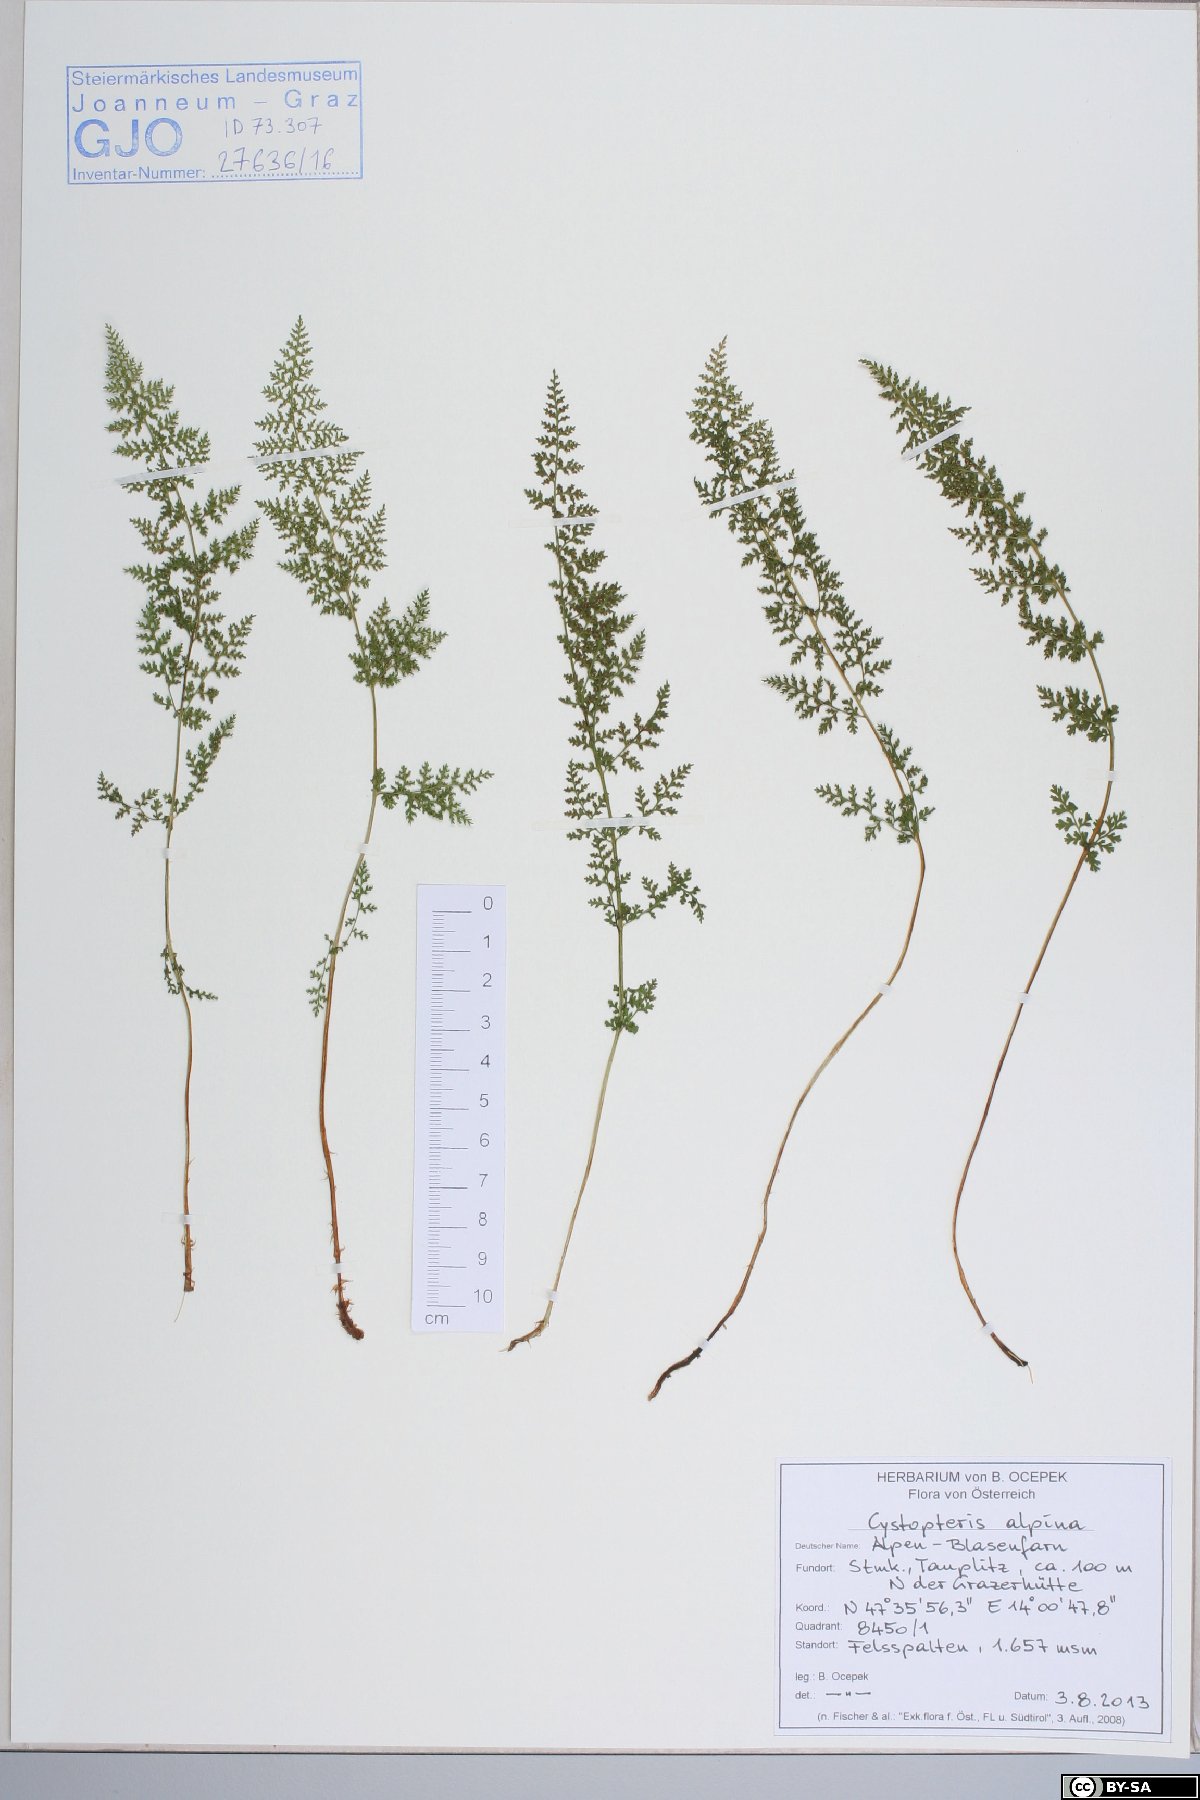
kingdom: Plantae
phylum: Tracheophyta
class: Polypodiopsida
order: Polypodiales
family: Cystopteridaceae
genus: Cystopteris
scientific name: Cystopteris alpina
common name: Alpine bladder-fern
